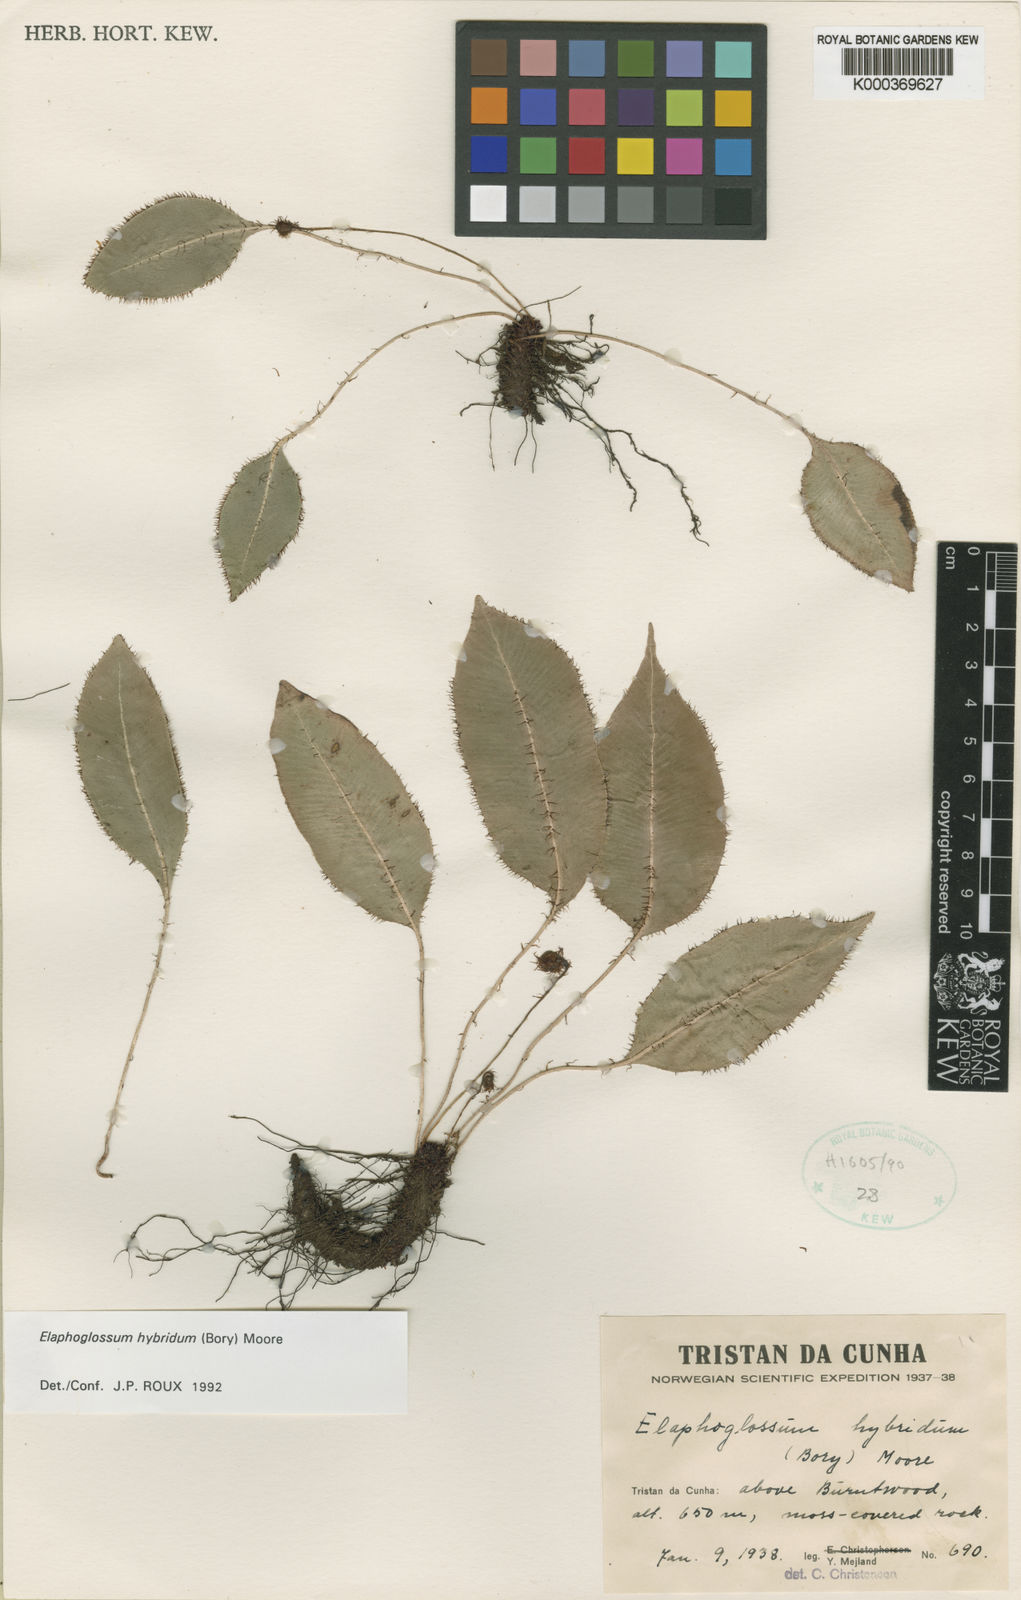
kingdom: Plantae
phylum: Tracheophyta
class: Polypodiopsida
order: Polypodiales
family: Dryopteridaceae
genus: Elaphoglossum
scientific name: Elaphoglossum hybridum
